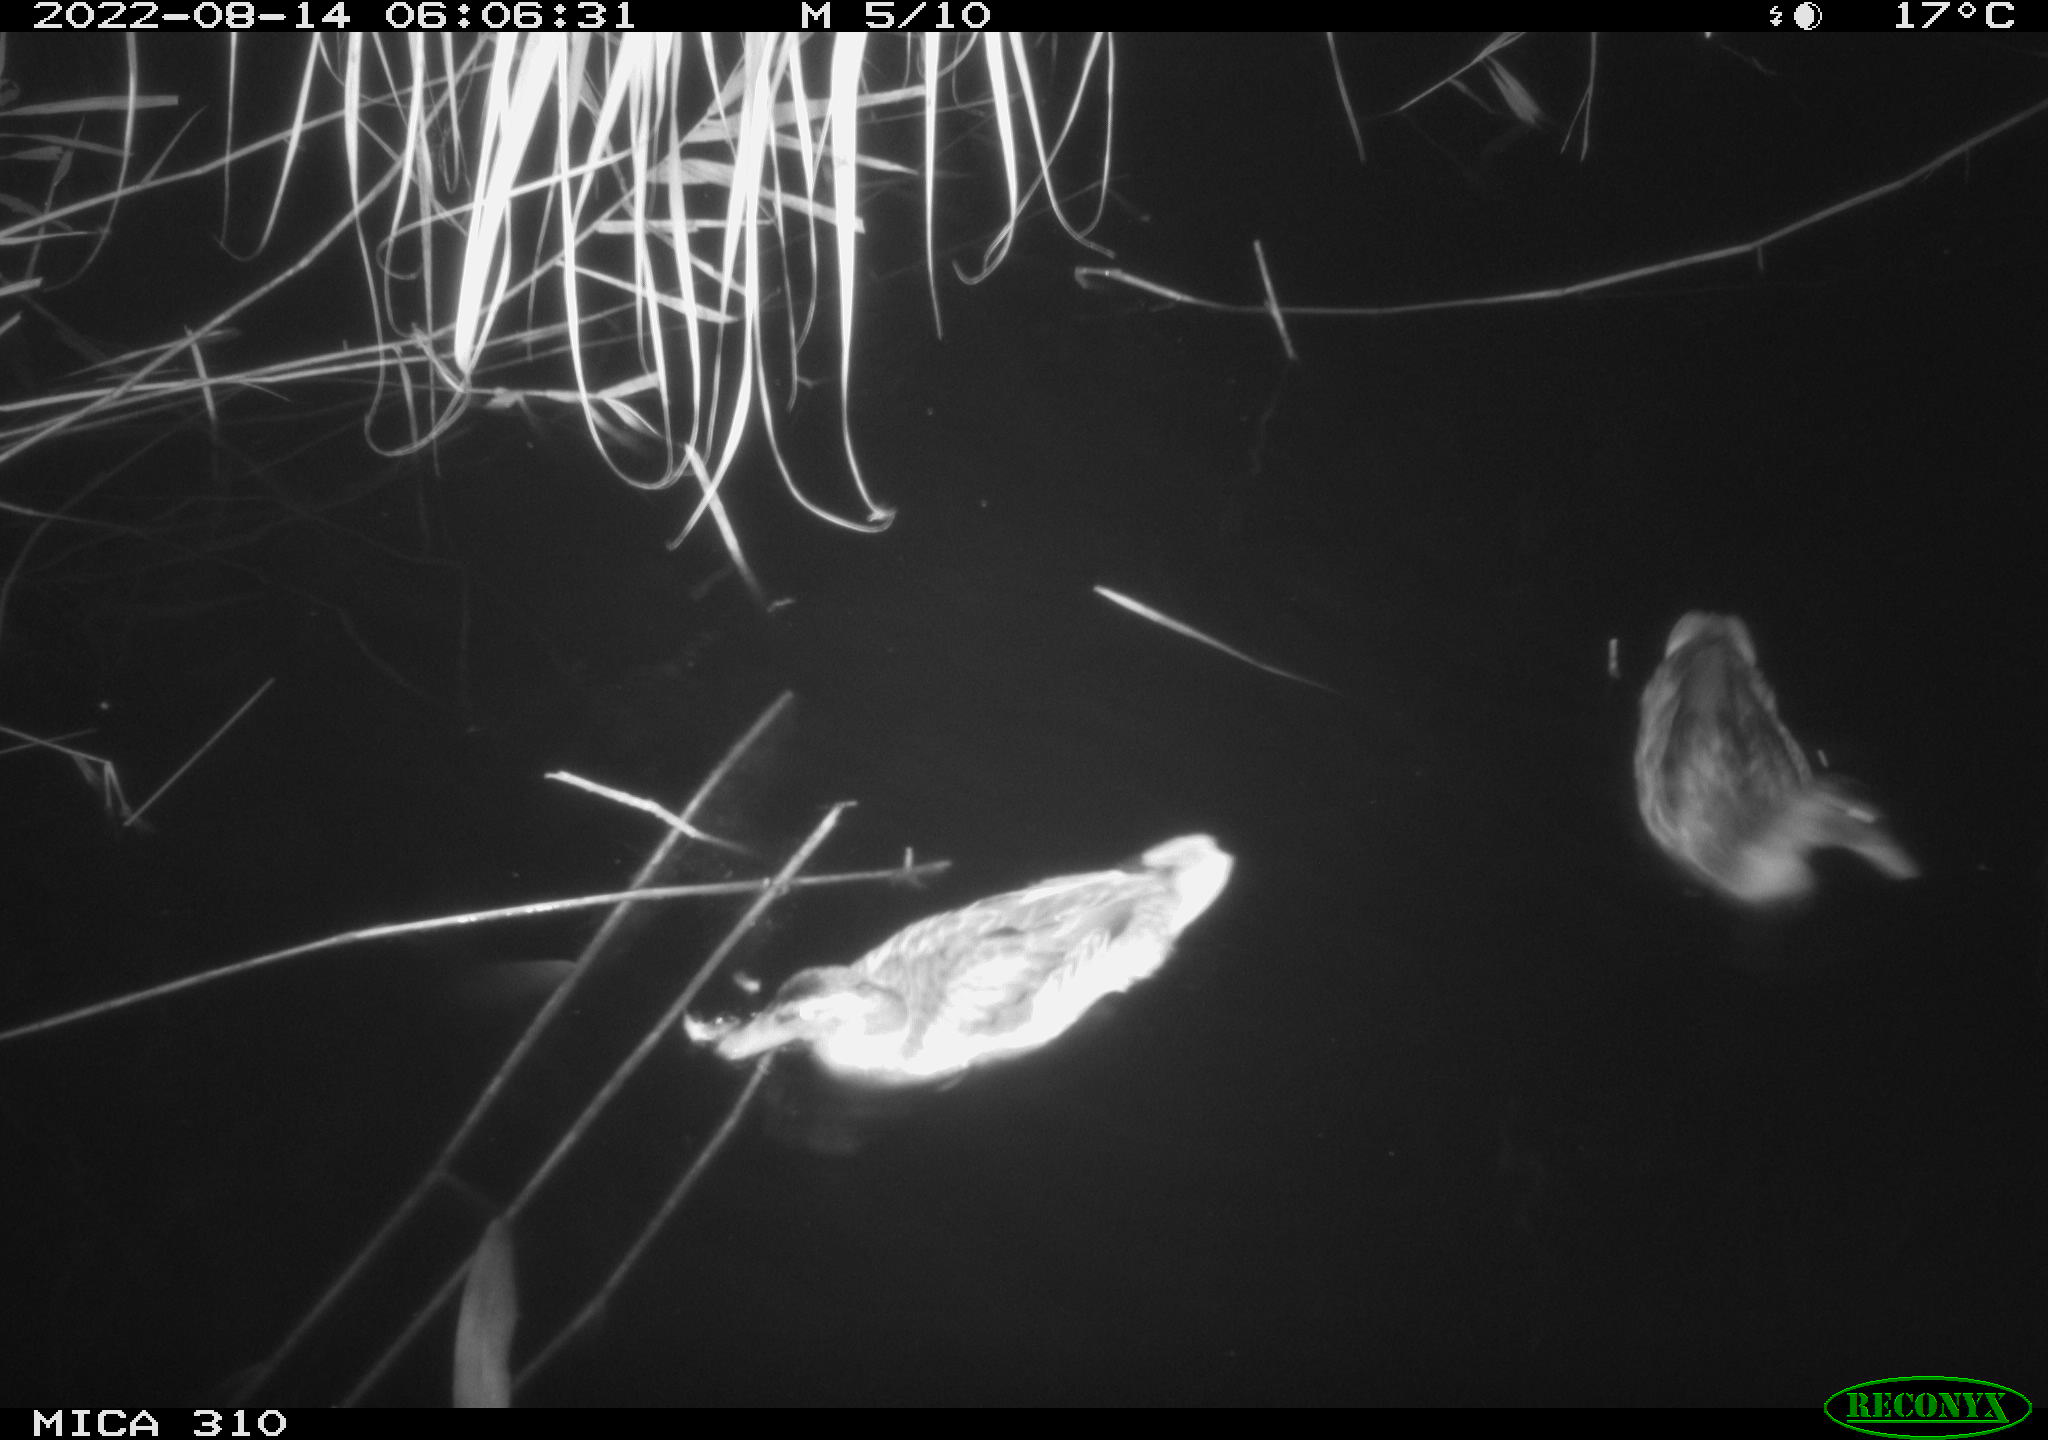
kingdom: Animalia
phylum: Chordata
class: Aves
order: Anseriformes
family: Anatidae
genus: Anas
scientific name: Anas platyrhynchos
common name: Mallard
